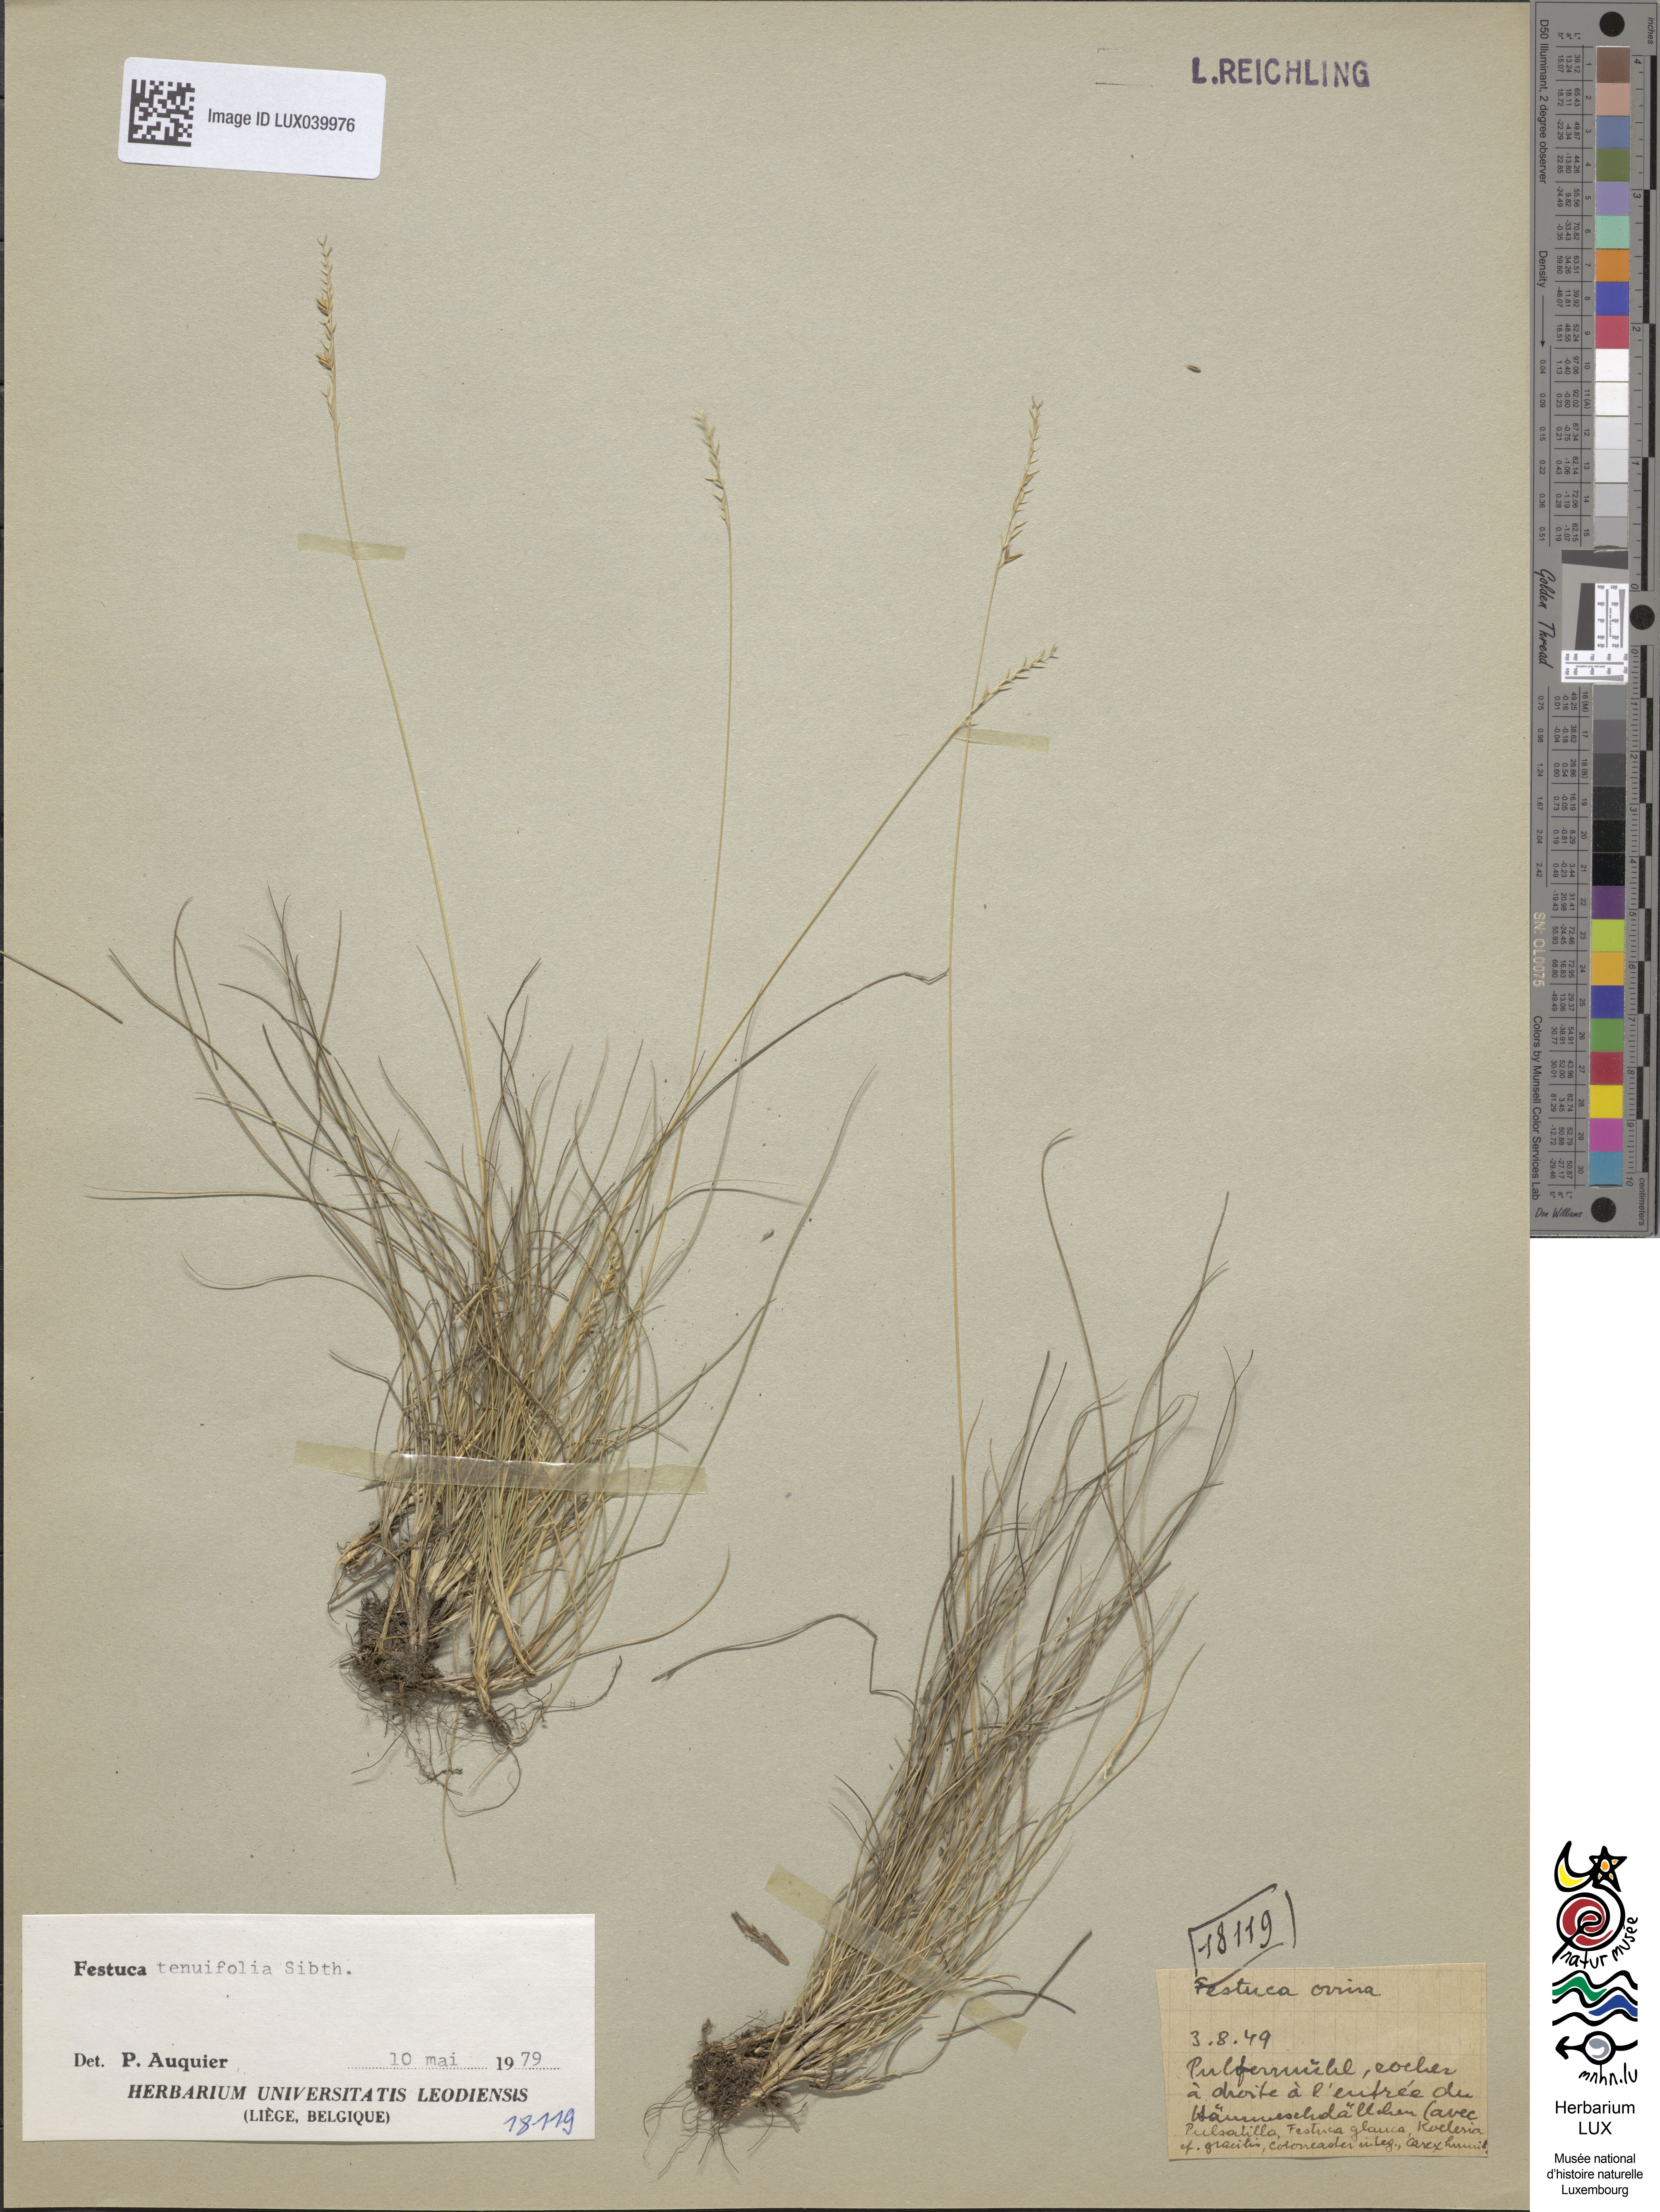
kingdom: Plantae
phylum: Tracheophyta
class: Liliopsida
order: Poales
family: Poaceae
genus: Festuca
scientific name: Festuca ovina
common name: Sheep fescue
